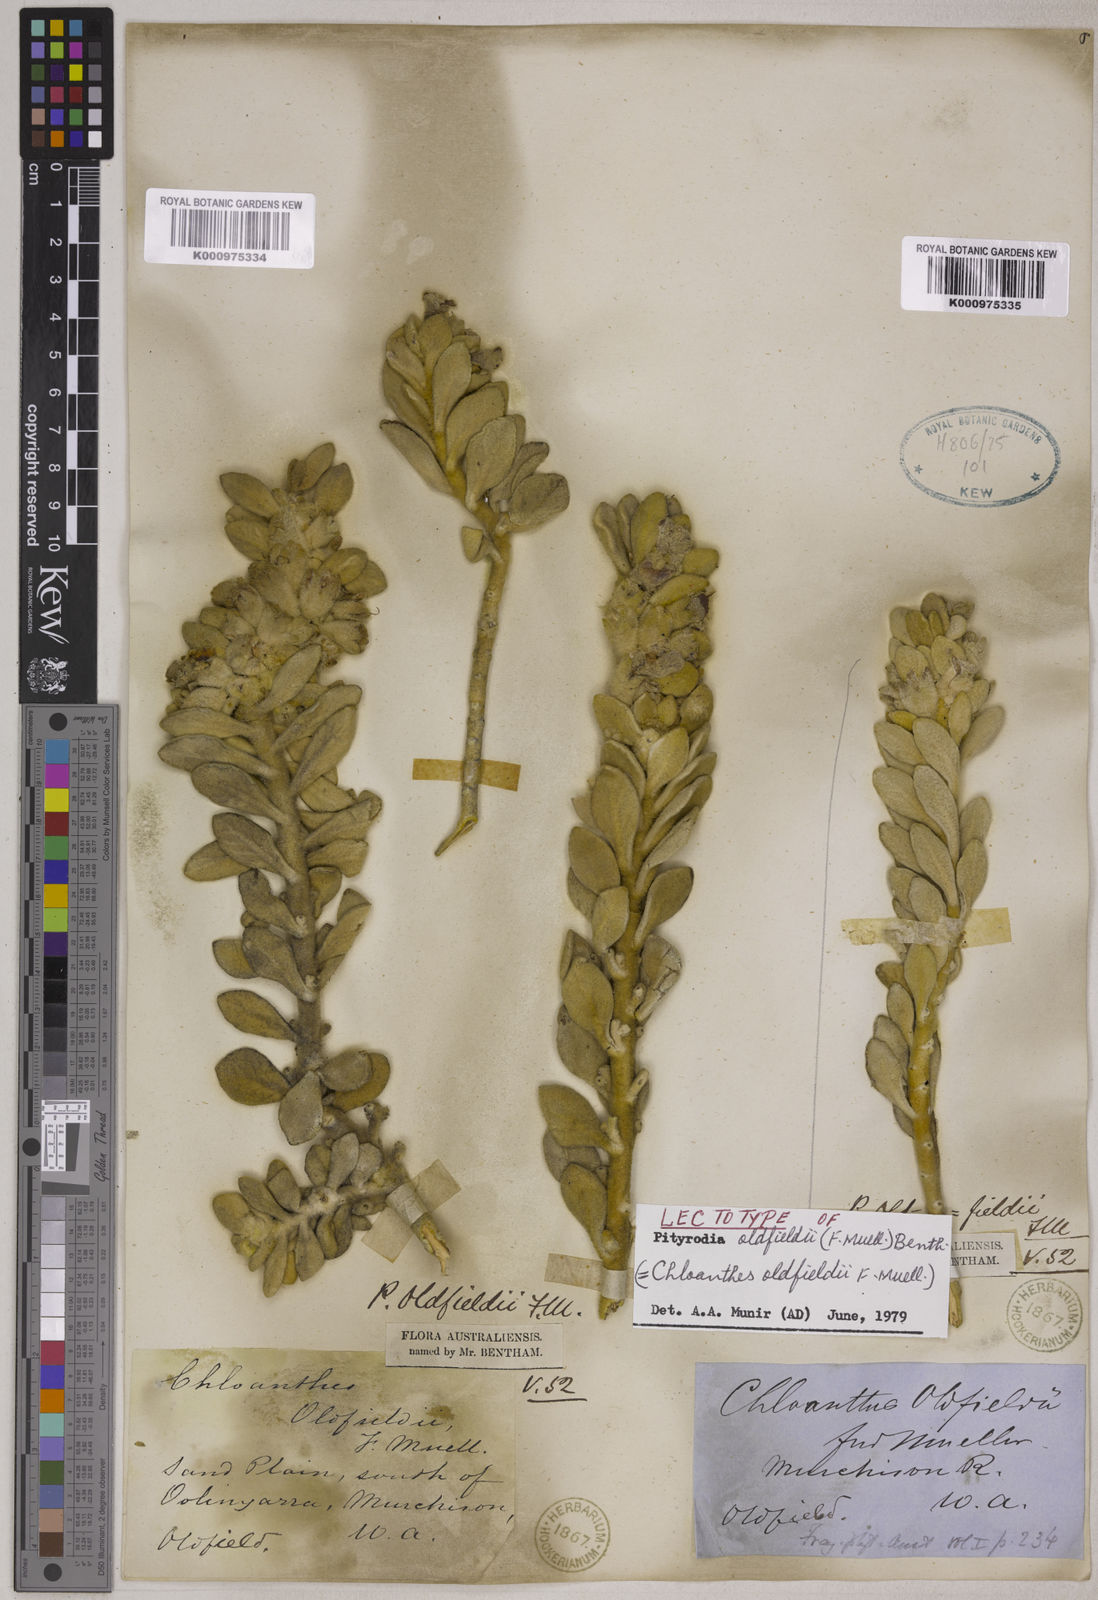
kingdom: Plantae
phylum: Tracheophyta
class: Magnoliopsida
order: Lamiales
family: Lamiaceae
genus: Quoya
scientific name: Quoya oldfieldii
